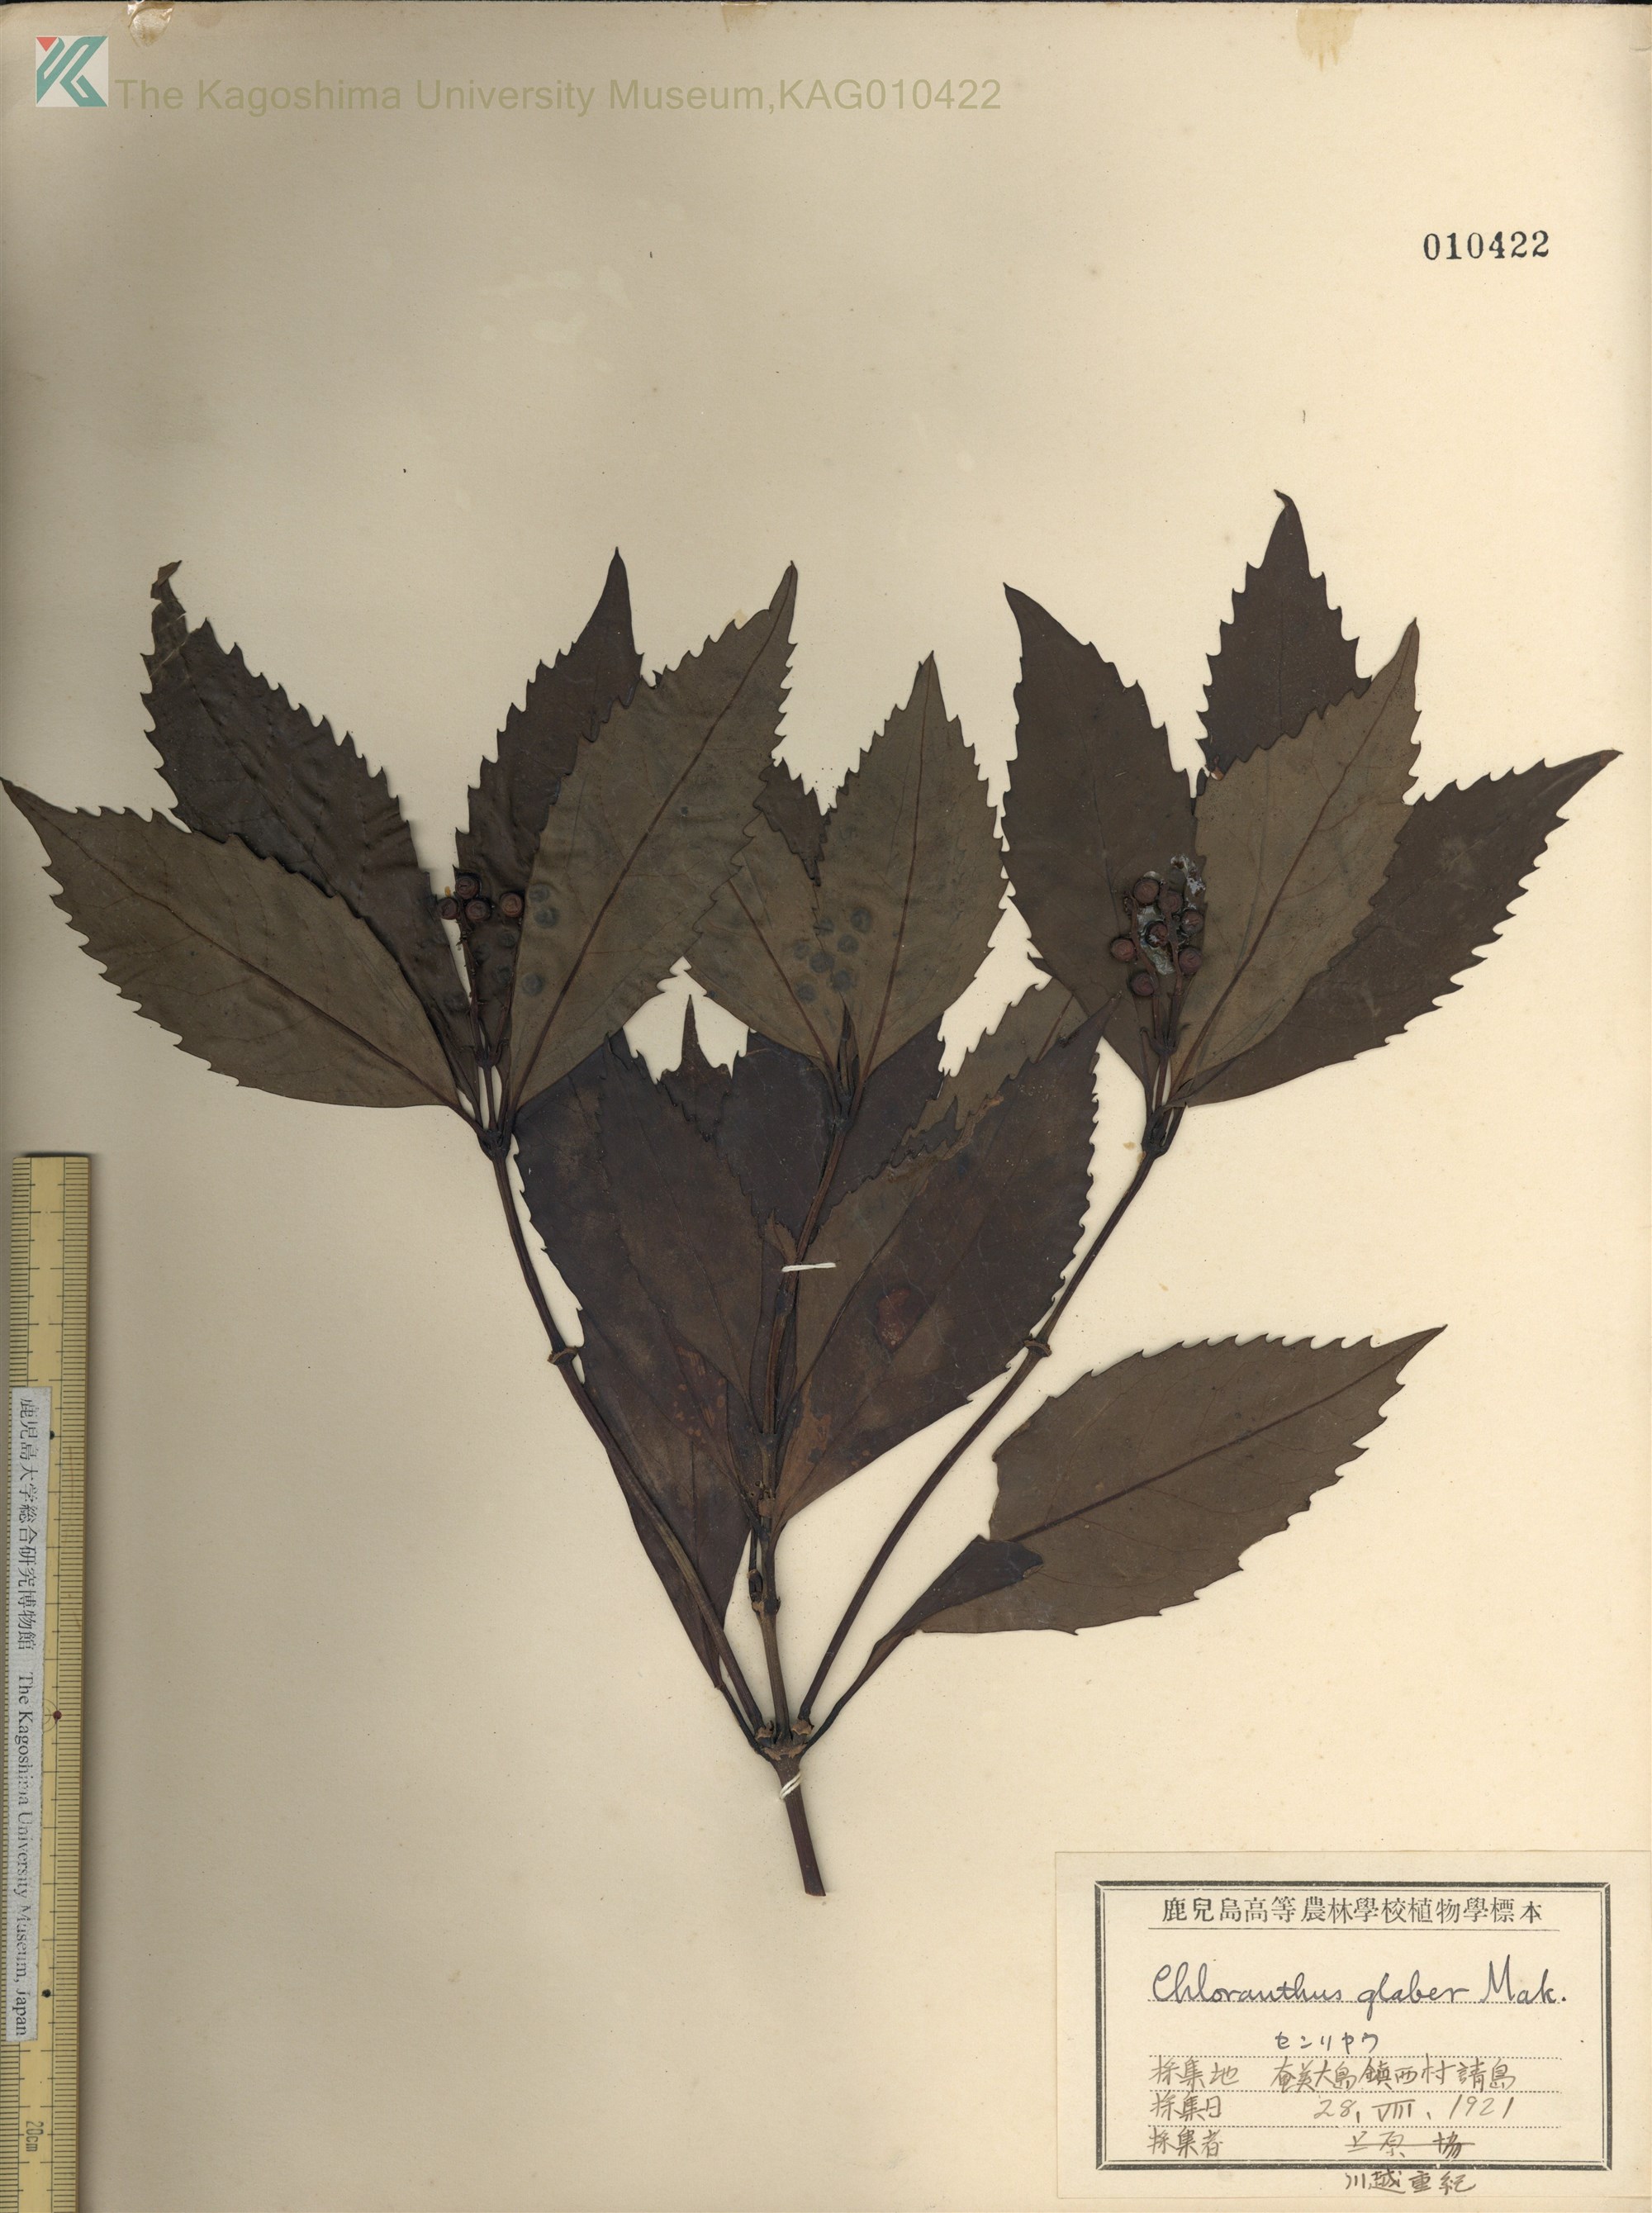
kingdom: Plantae
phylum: Tracheophyta
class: Magnoliopsida
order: Chloranthales
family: Chloranthaceae
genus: Sarcandra
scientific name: Sarcandra glabra
